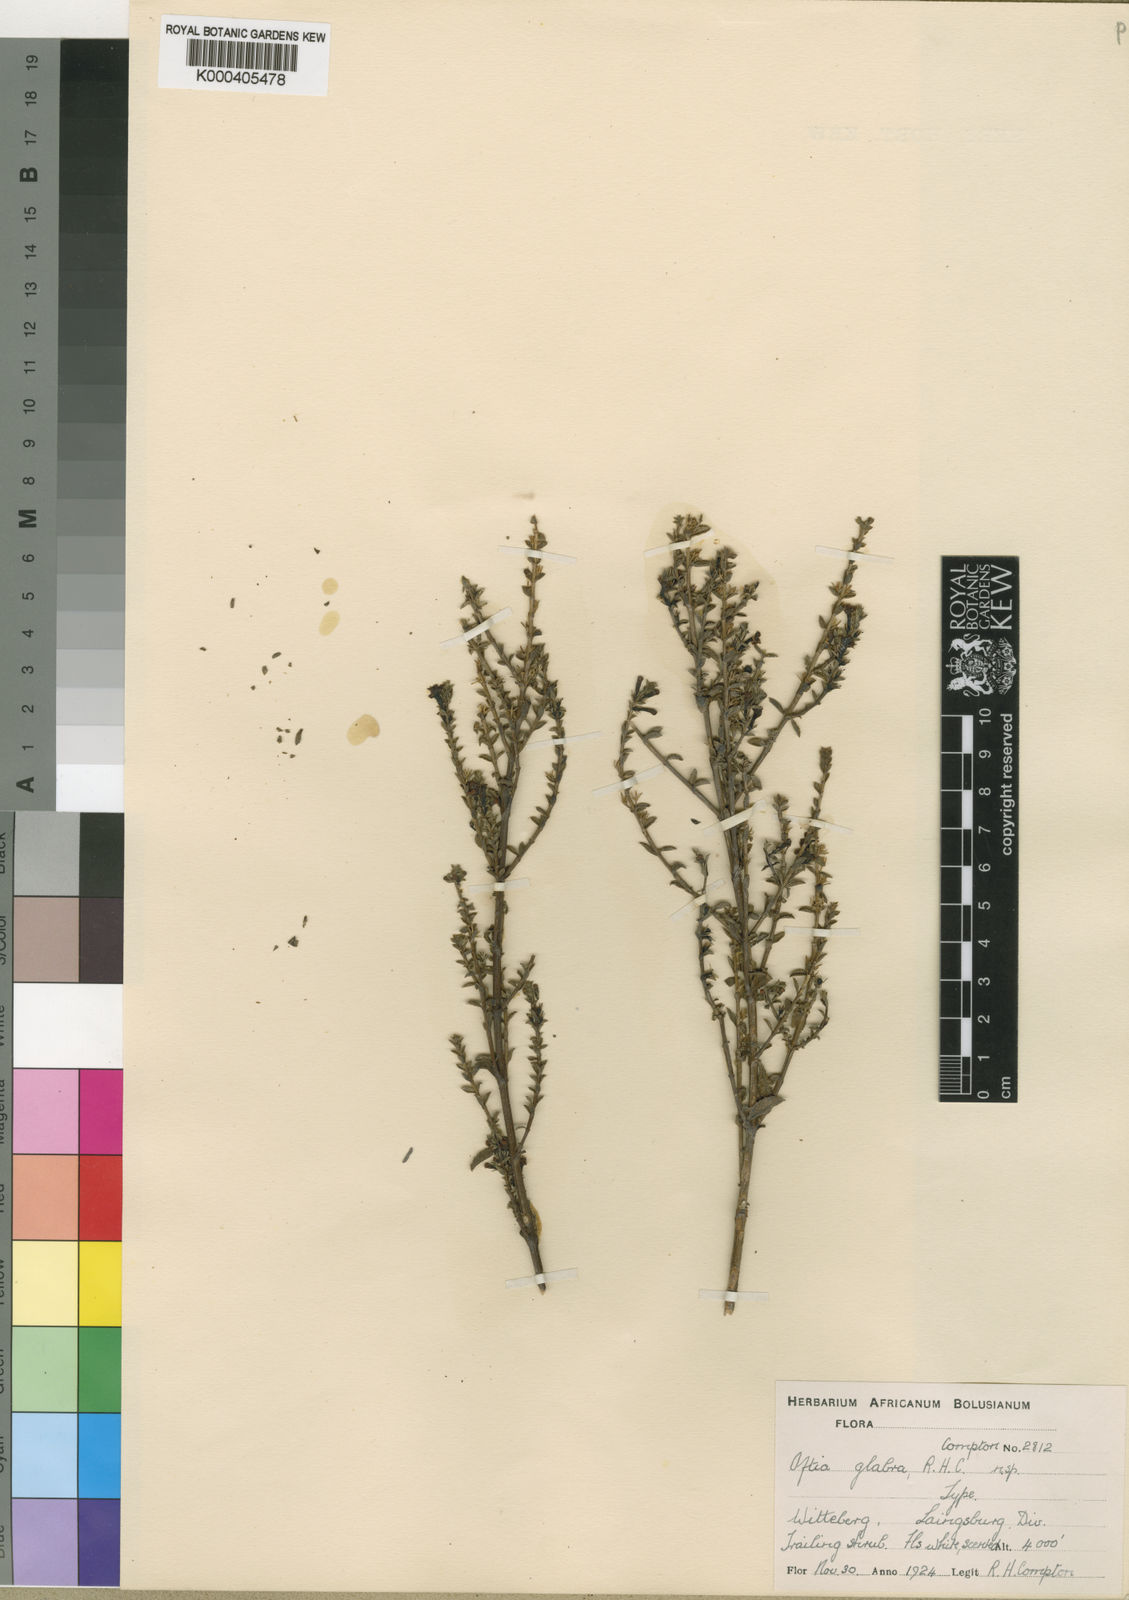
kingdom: Plantae
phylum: Tracheophyta
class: Magnoliopsida
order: Lamiales
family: Scrophulariaceae
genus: Oftia
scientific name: Oftia glabra
